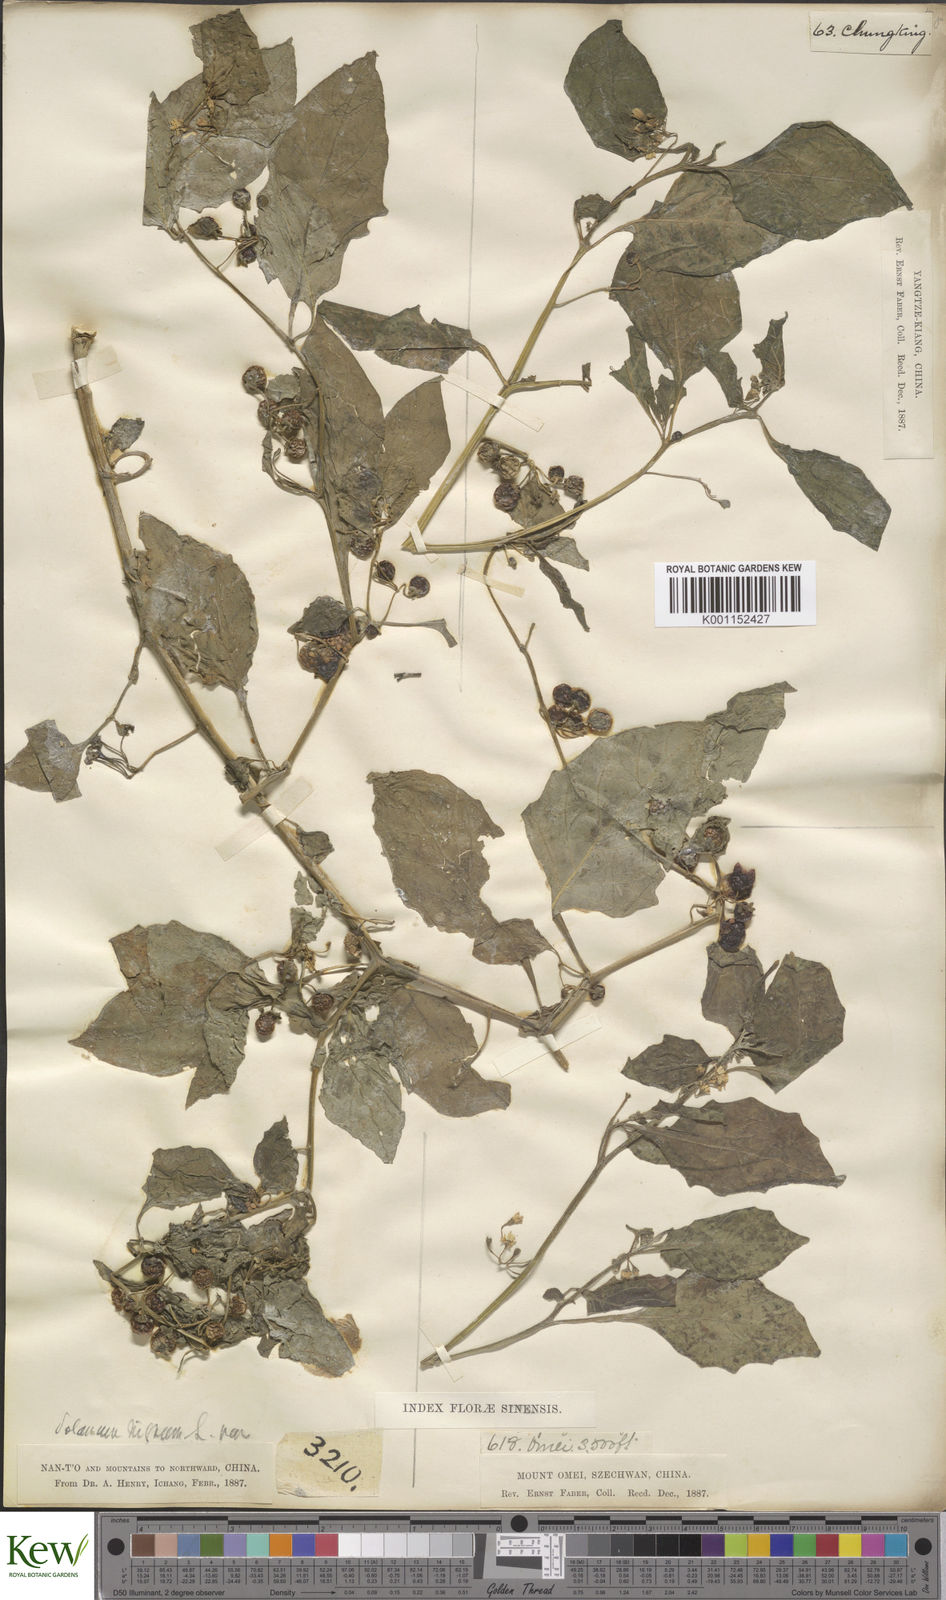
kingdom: Plantae
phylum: Tracheophyta
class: Magnoliopsida
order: Solanales
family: Solanaceae
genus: Solanum
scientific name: Solanum scabrum
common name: Garden-huckleberry
